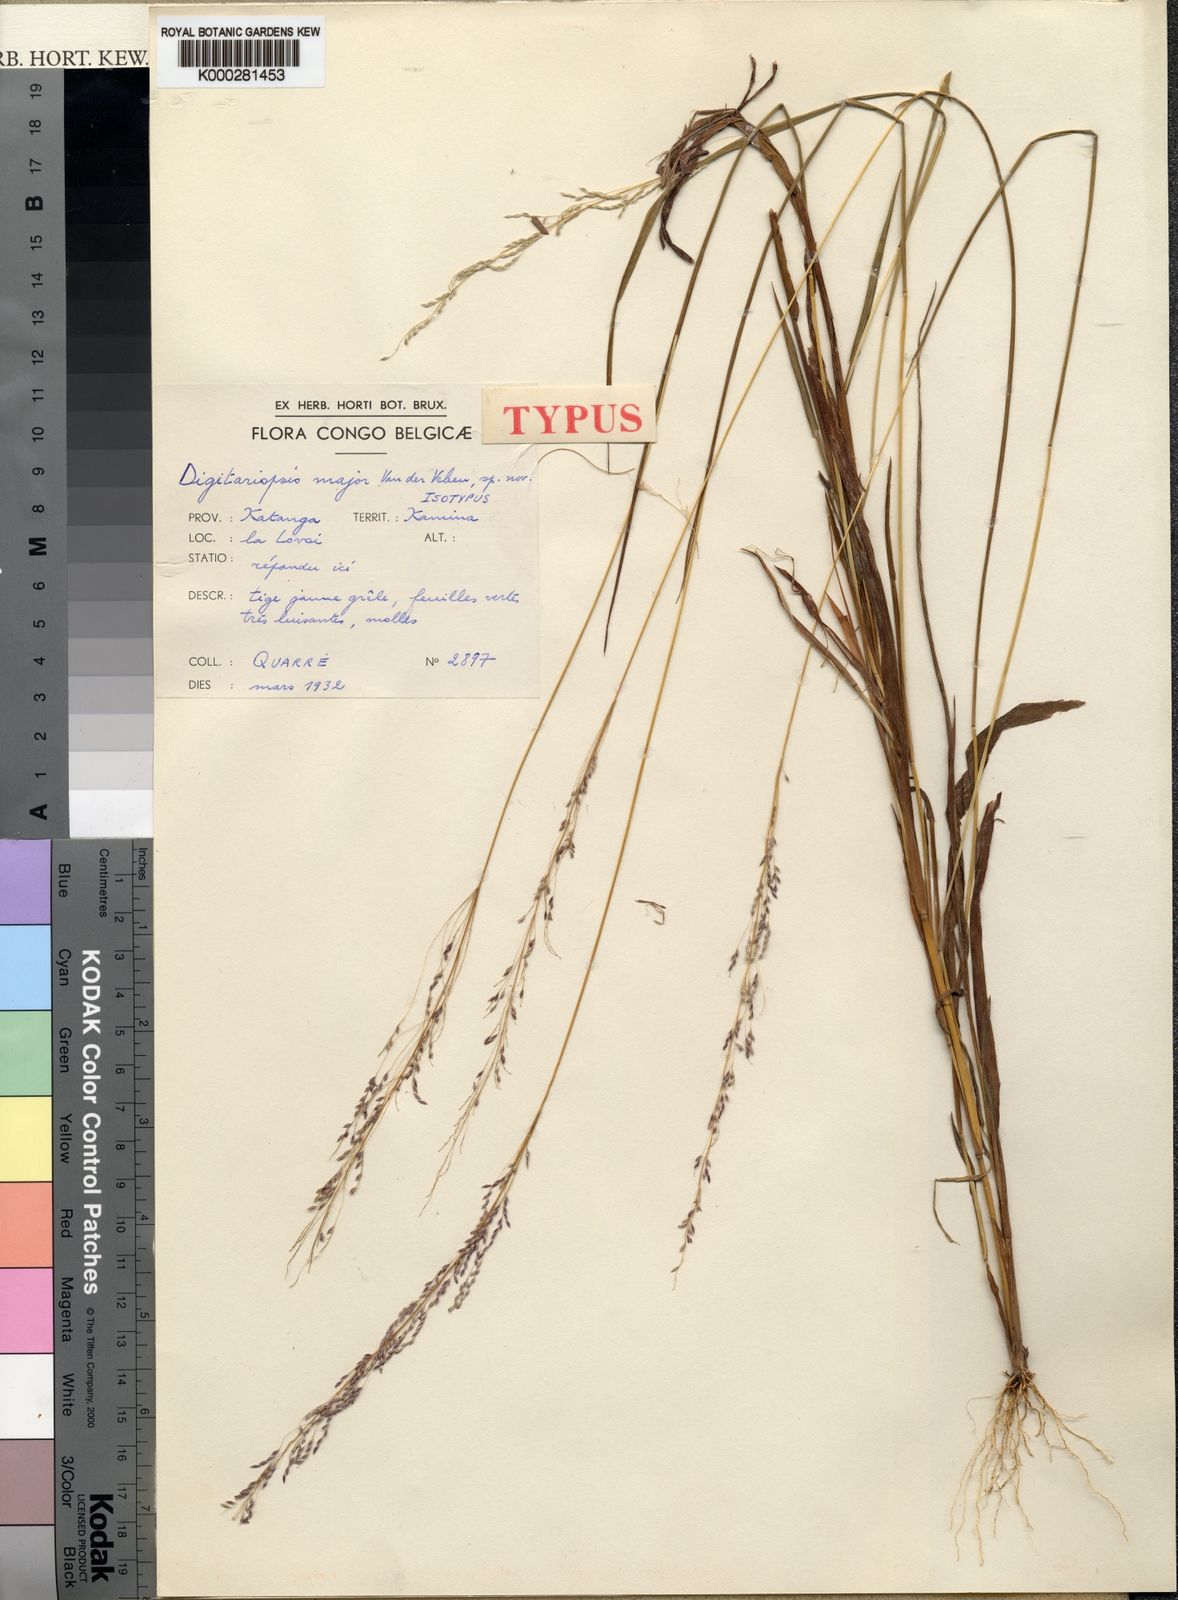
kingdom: Plantae
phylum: Tracheophyta
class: Liliopsida
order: Poales
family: Poaceae
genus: Digitaria
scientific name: Digitaria poggeana
